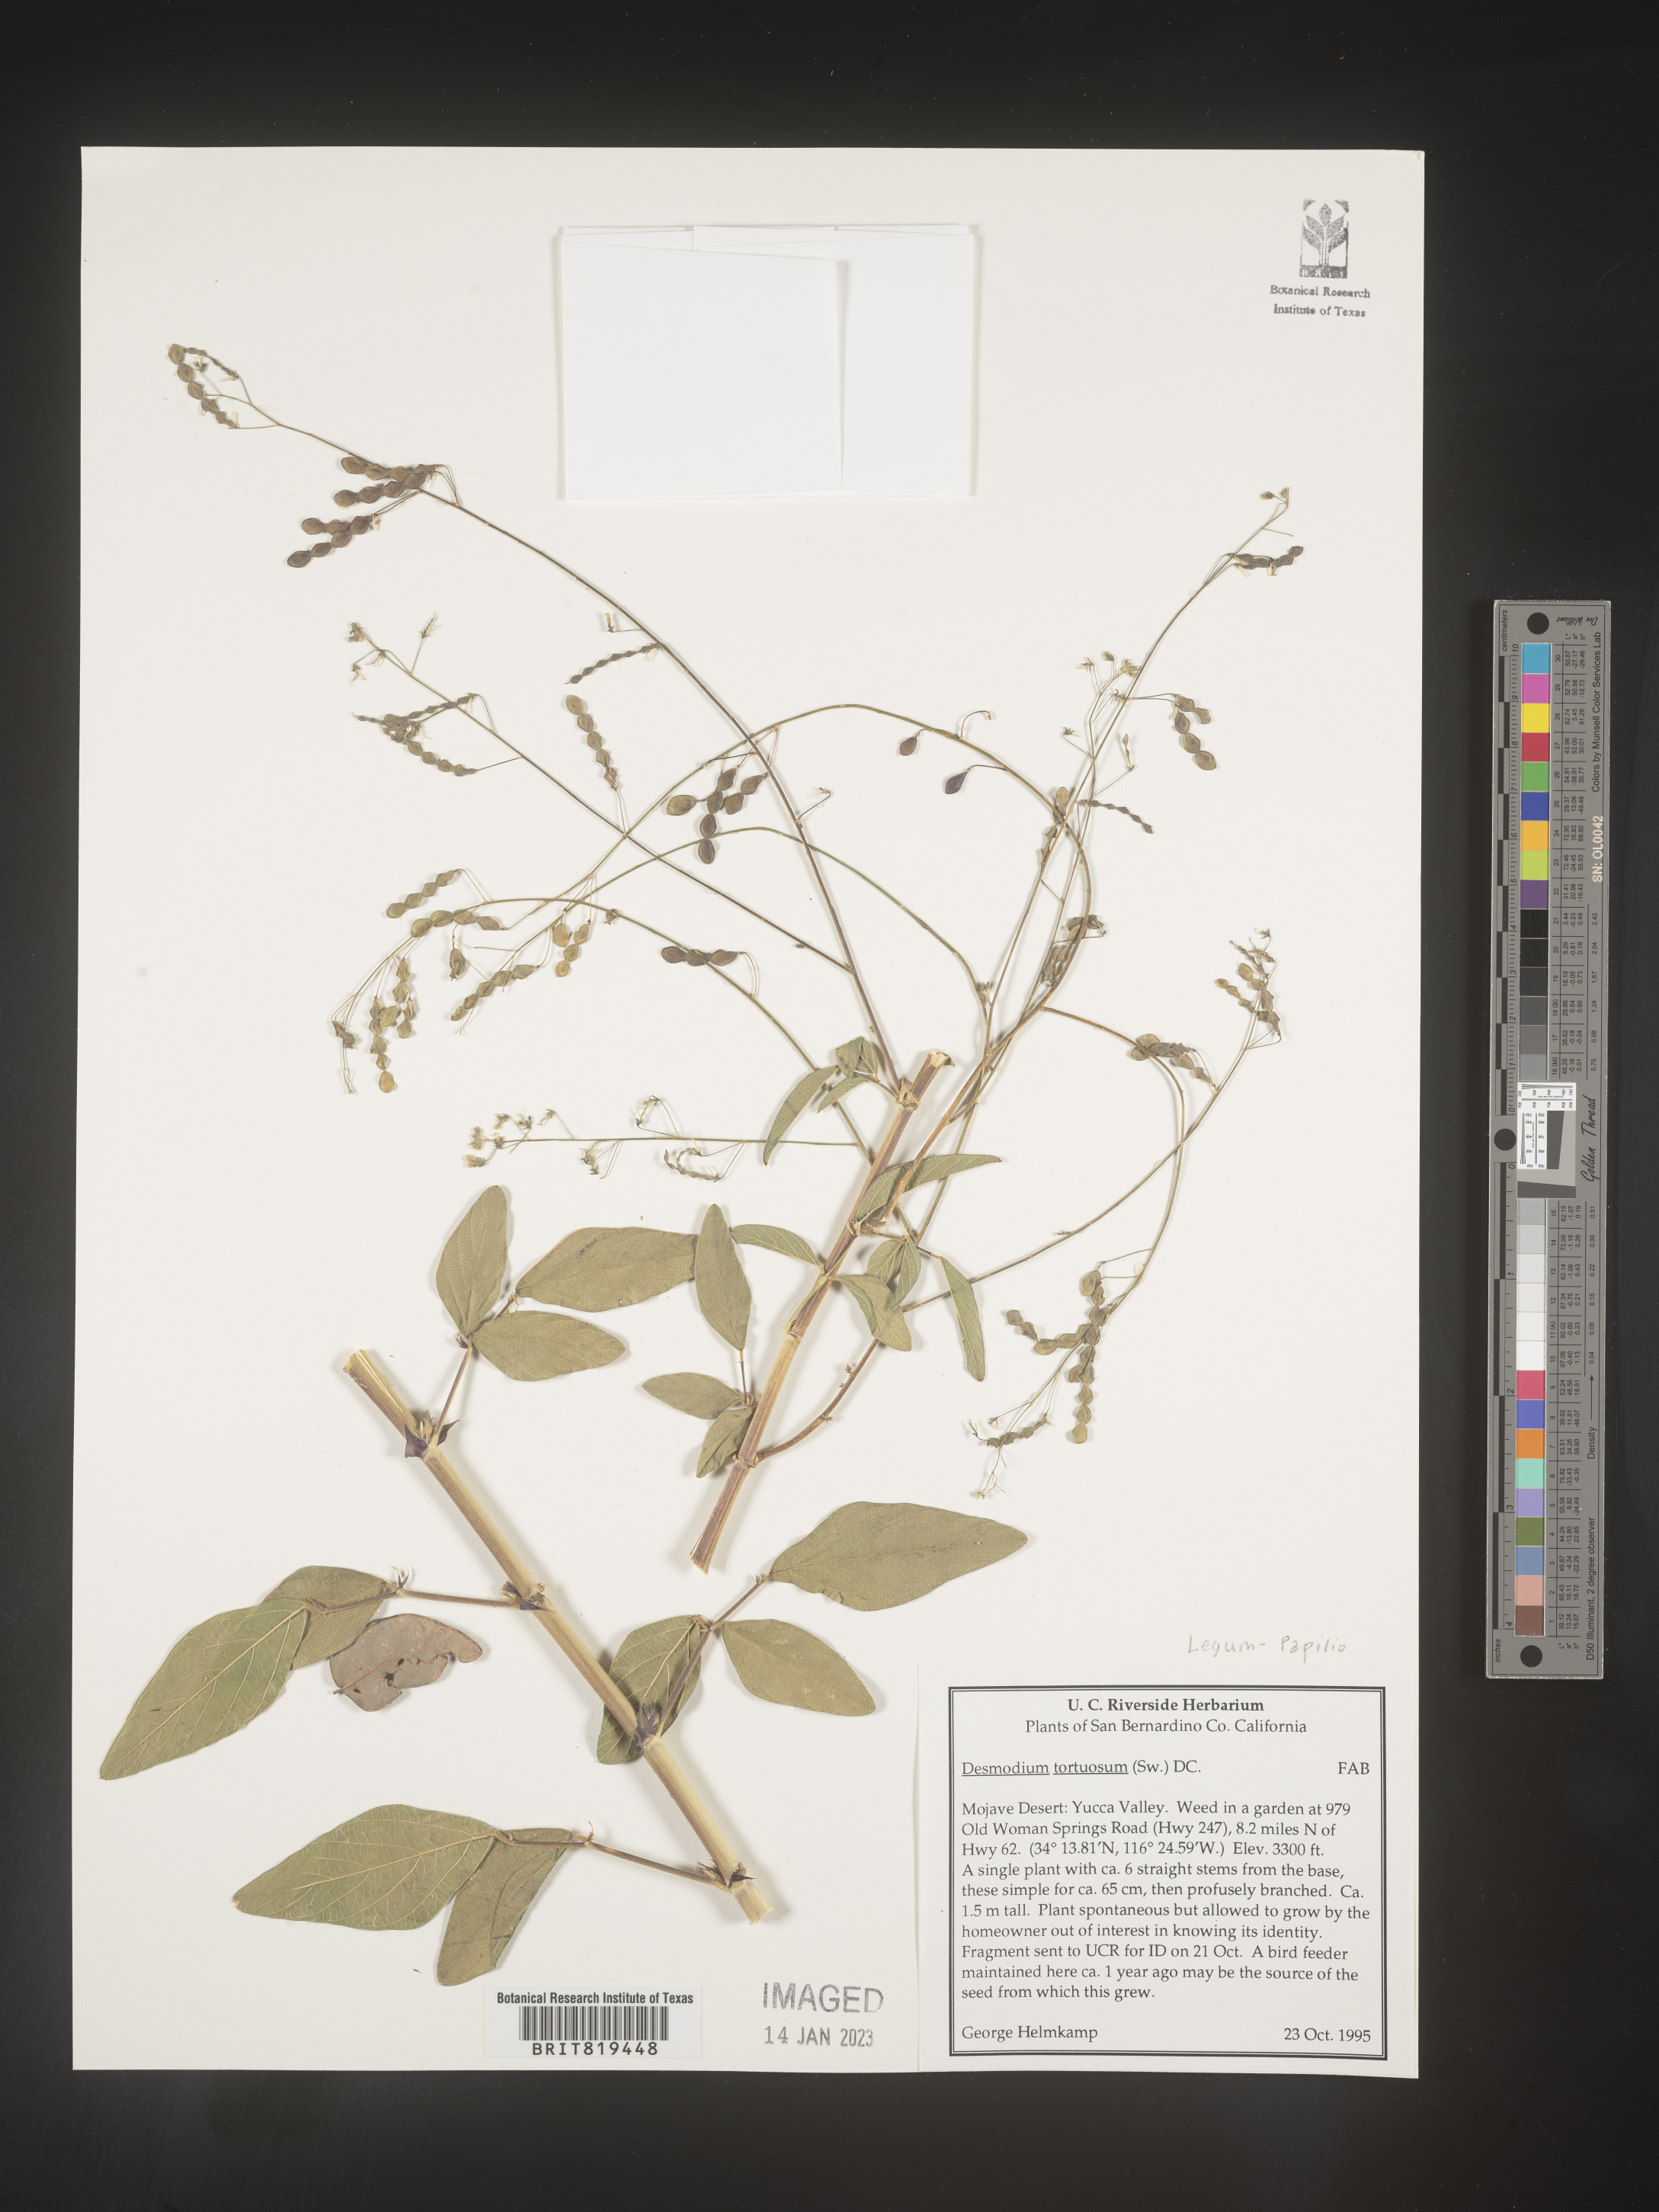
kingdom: Plantae
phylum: Tracheophyta
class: Magnoliopsida
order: Fabales
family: Fabaceae
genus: Desmodium
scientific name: Desmodium tortuosum
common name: Dixie ticktrefoil
